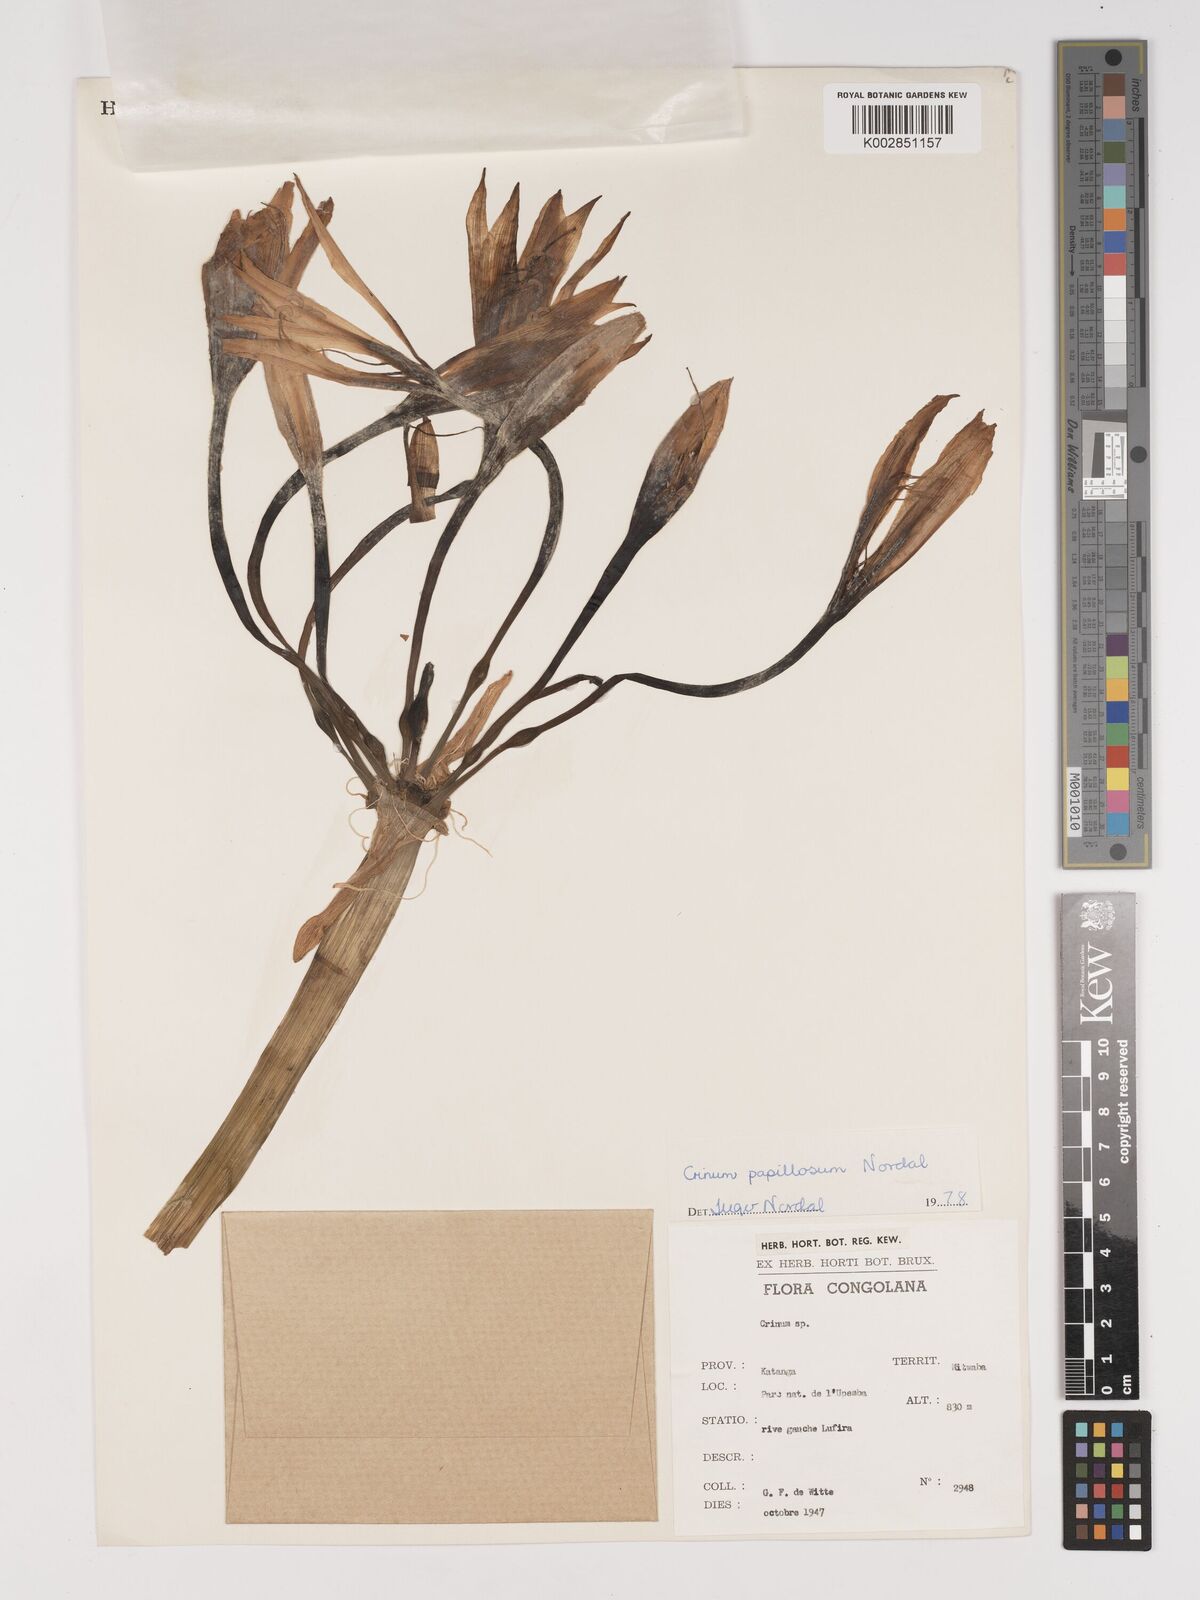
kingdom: Plantae
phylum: Tracheophyta
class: Liliopsida
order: Asparagales
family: Amaryllidaceae
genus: Crinum
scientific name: Crinum papillosum
